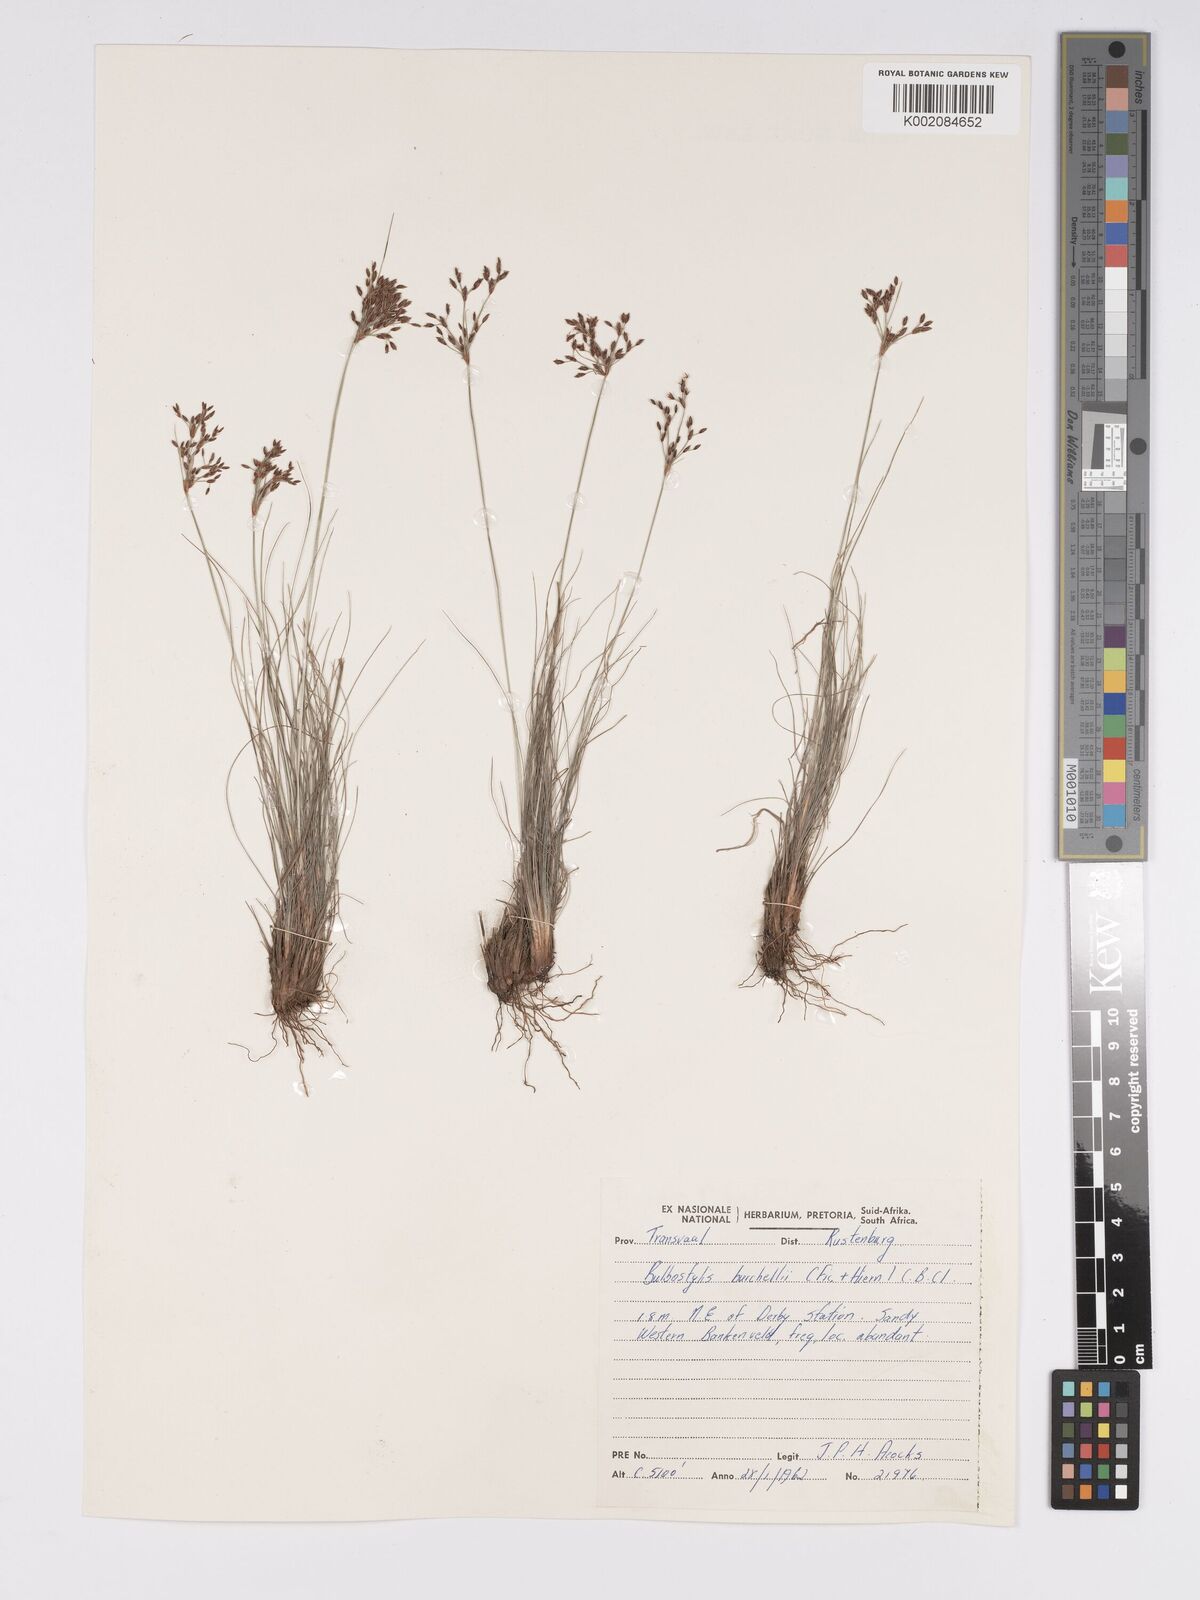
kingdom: Plantae
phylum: Tracheophyta
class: Liliopsida
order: Poales
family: Cyperaceae
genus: Bulbostylis
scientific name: Bulbostylis burchellii
